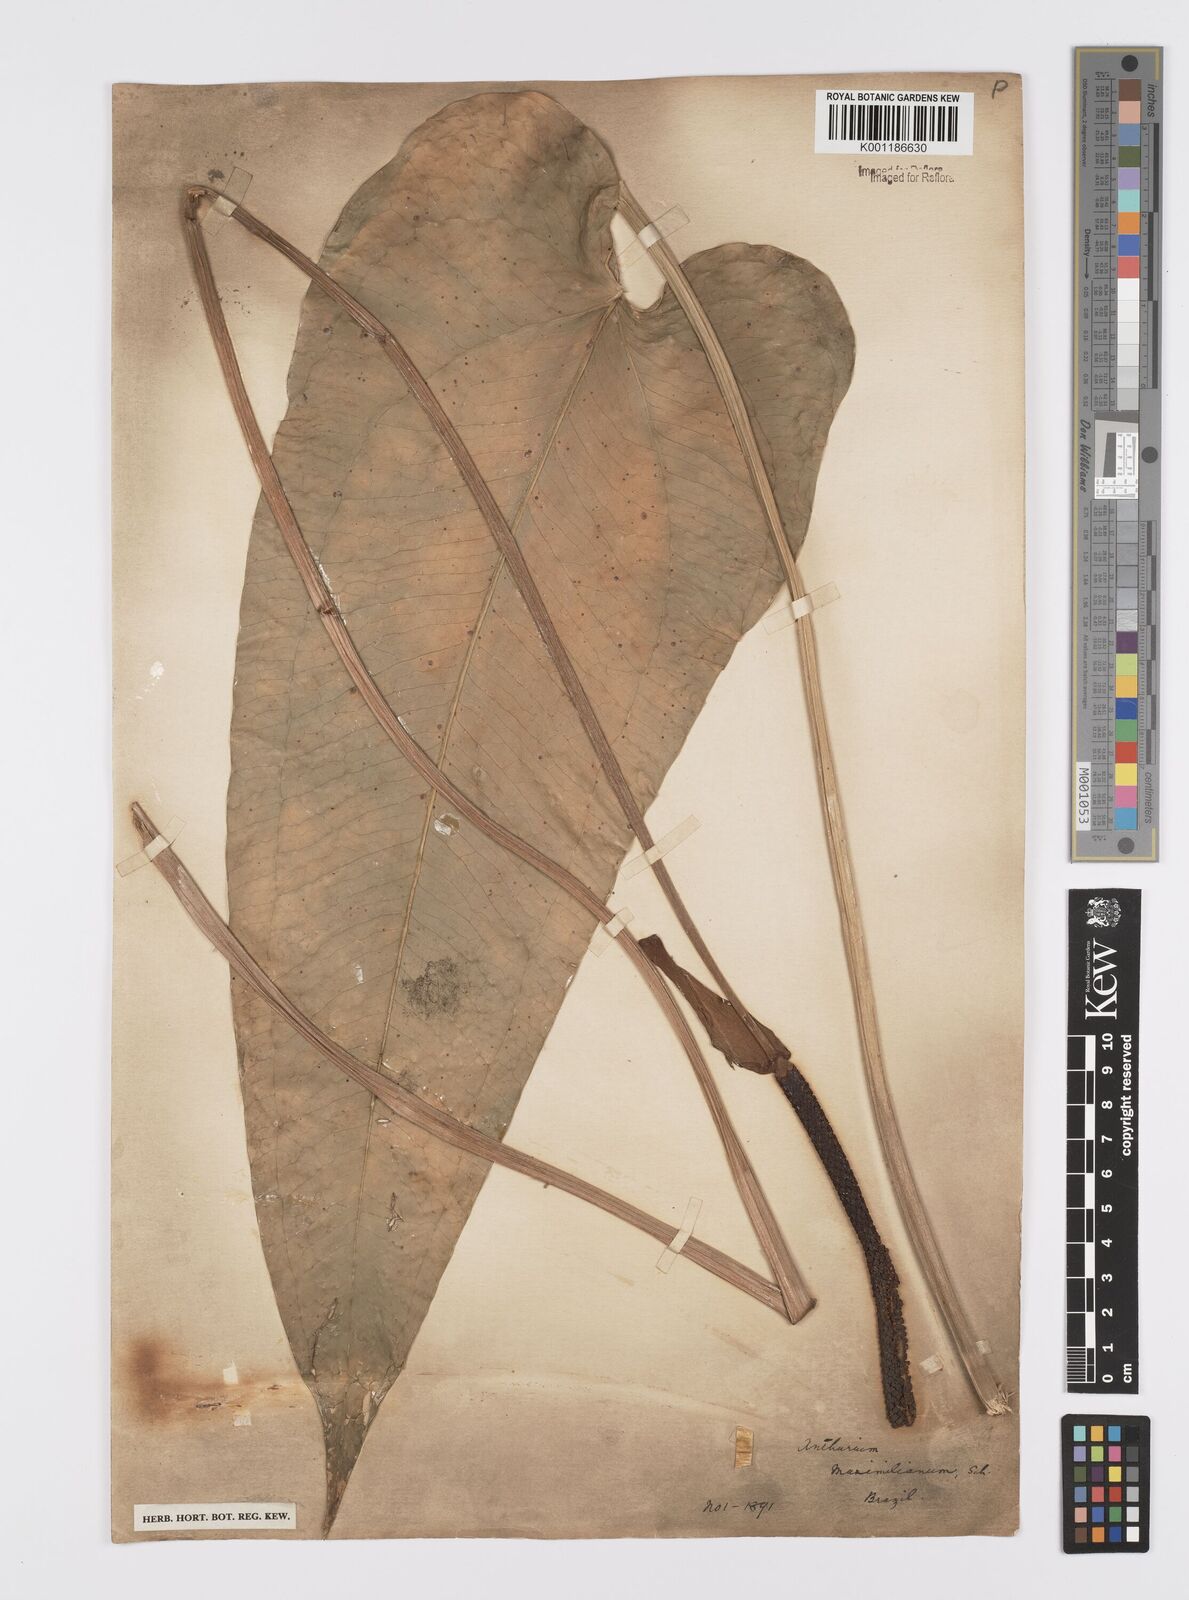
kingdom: Plantae
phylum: Tracheophyta
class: Liliopsida
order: Alismatales
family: Araceae
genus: Anthurium
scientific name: Anthurium augustinum
